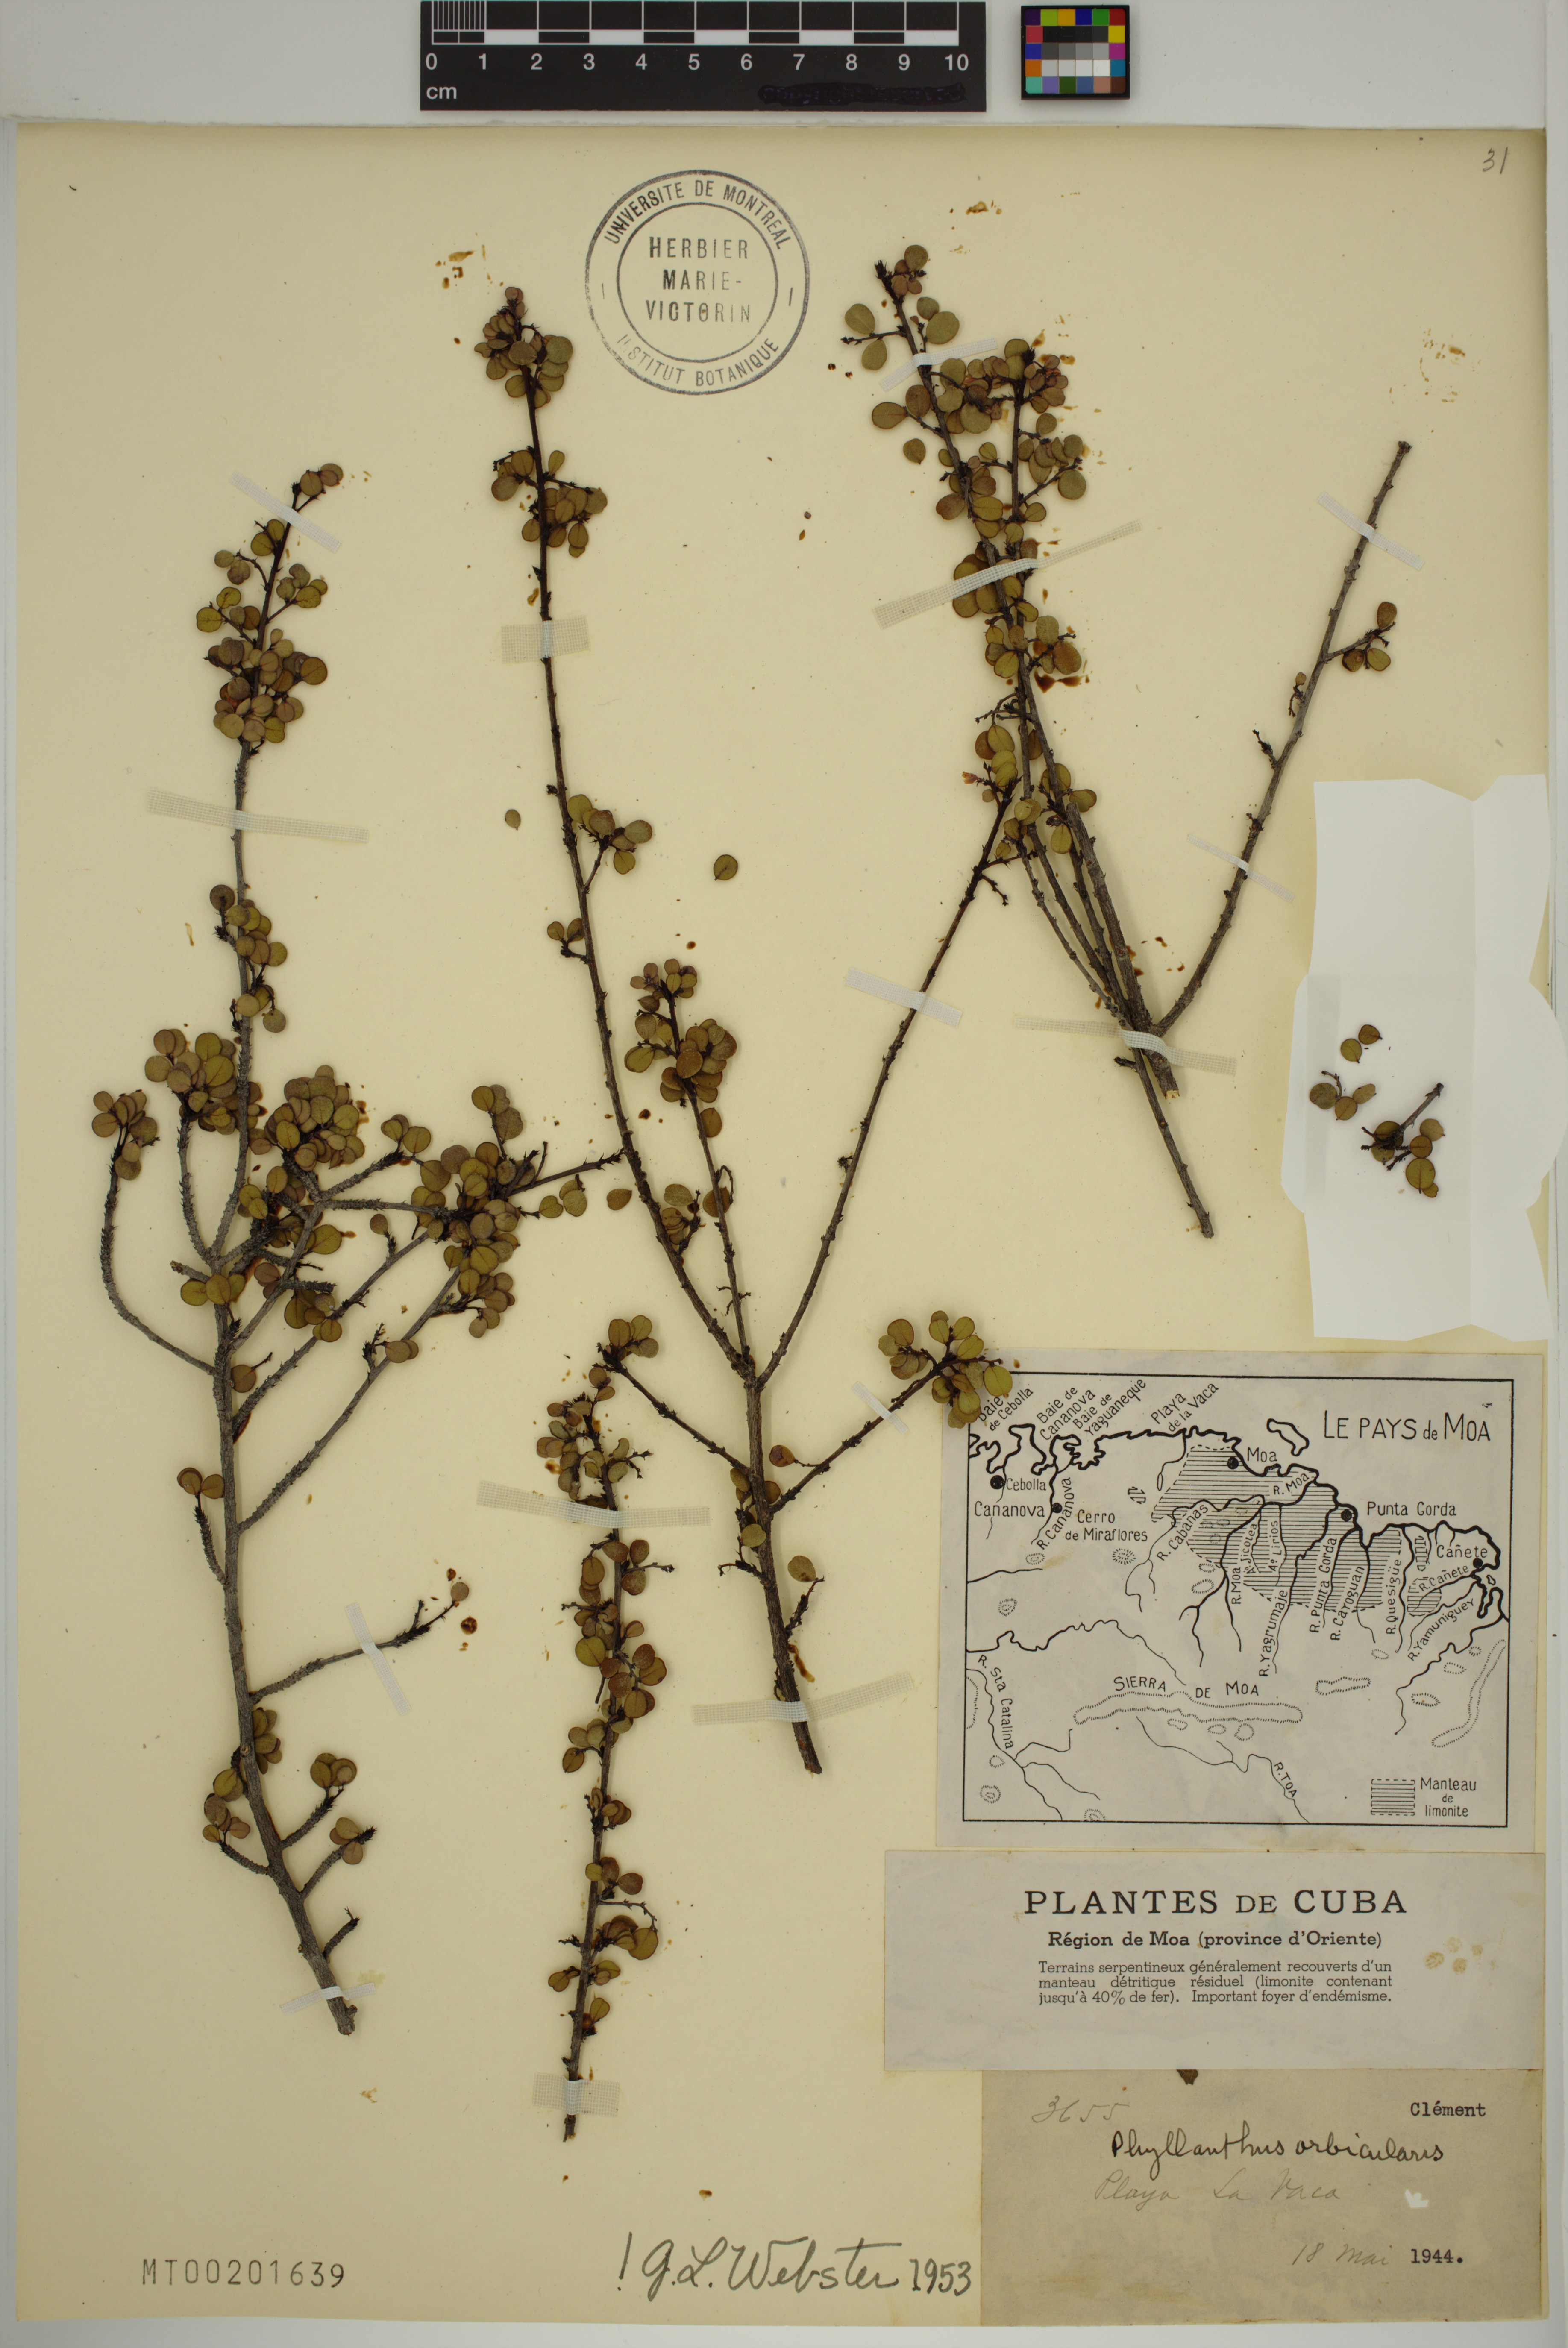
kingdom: Plantae
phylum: Tracheophyta
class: Magnoliopsida
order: Malpighiales
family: Phyllanthaceae
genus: Phyllanthus
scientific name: Phyllanthus orbicularis
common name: Wedge leaf-flower
